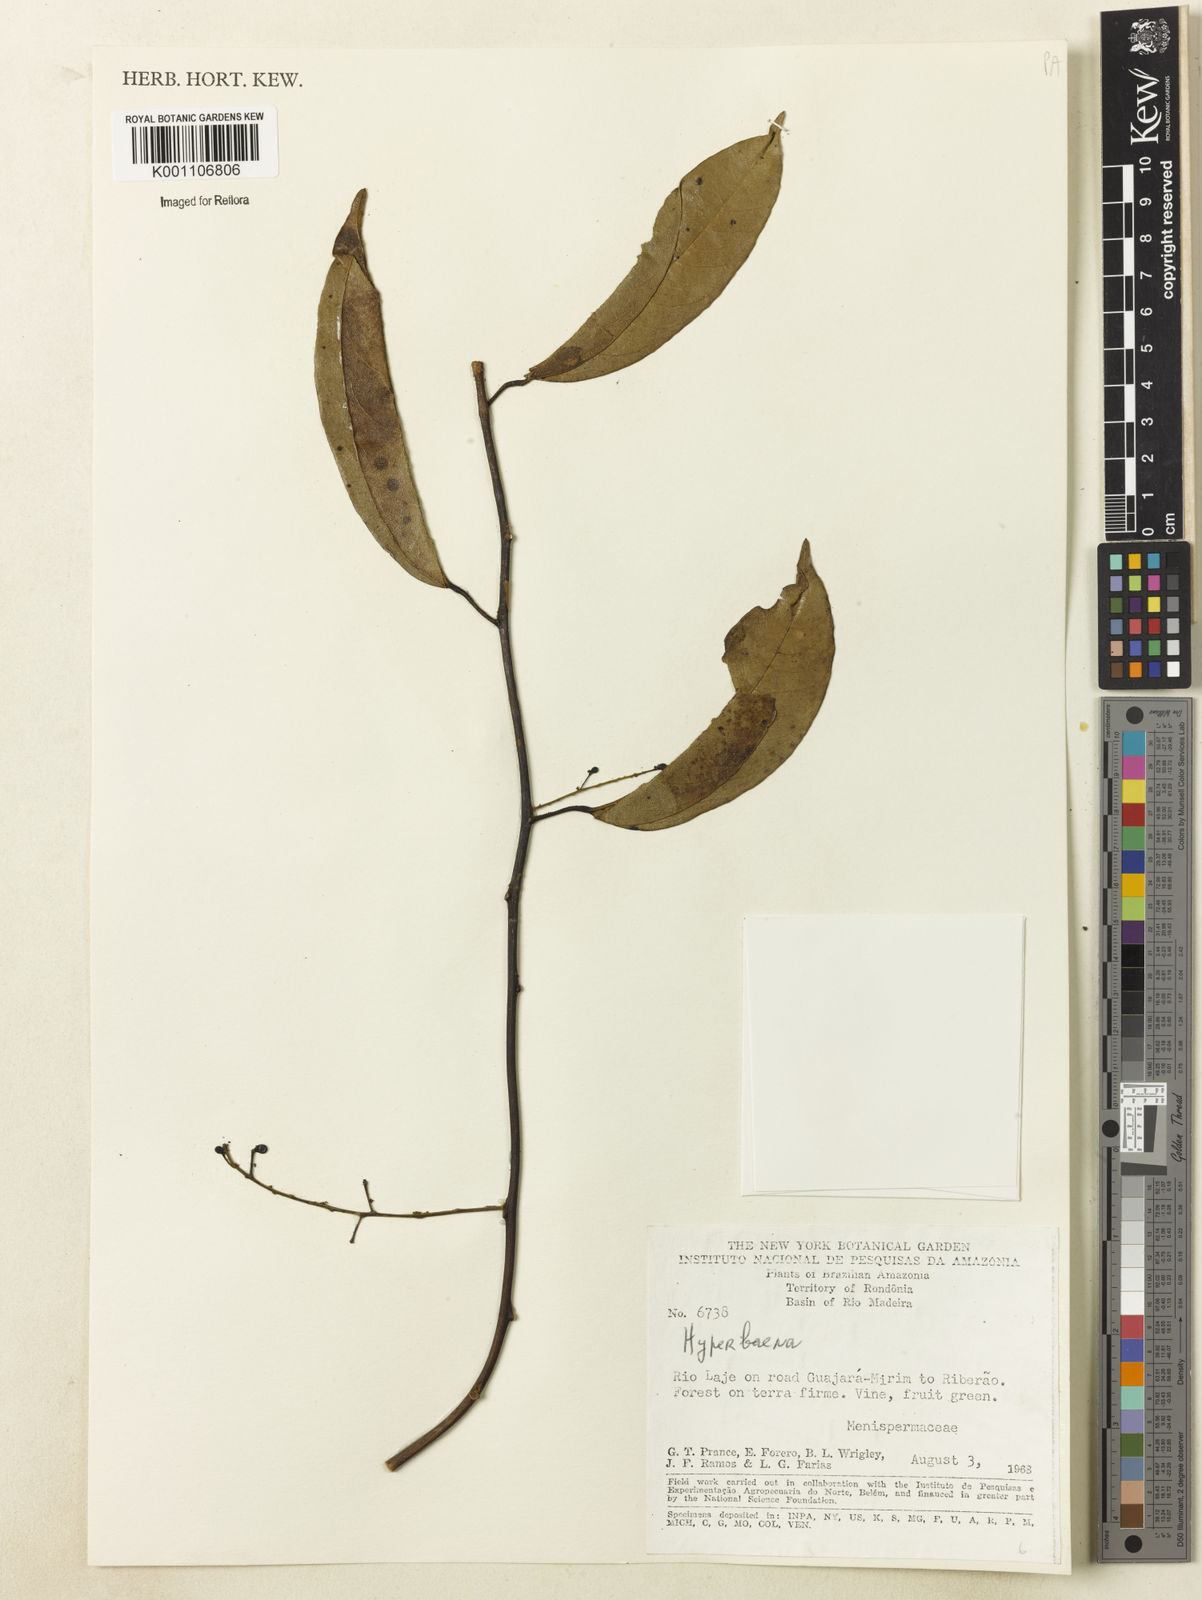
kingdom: Plantae
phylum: Tracheophyta
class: Magnoliopsida
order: Ranunculales
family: Menispermaceae
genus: Hyperbaena
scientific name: Hyperbaena domingensis
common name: Forest snakevine
